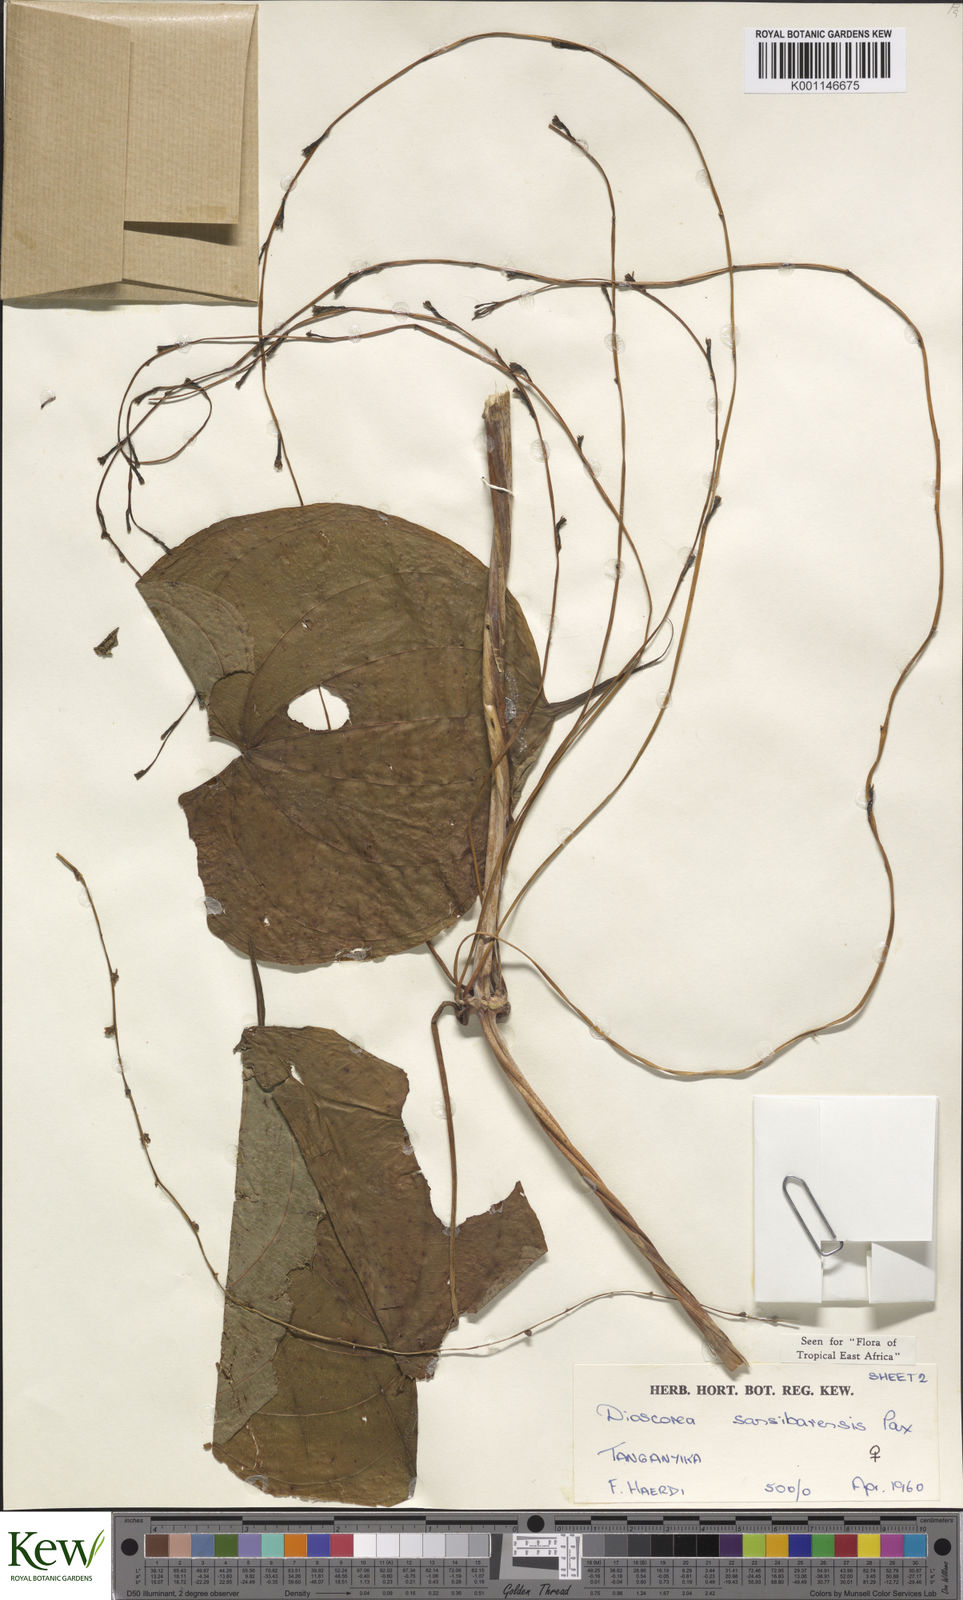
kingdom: Plantae
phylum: Tracheophyta
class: Liliopsida
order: Dioscoreales
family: Dioscoreaceae
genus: Dioscorea
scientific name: Dioscorea sansibarensis
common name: Zanzibar yam
